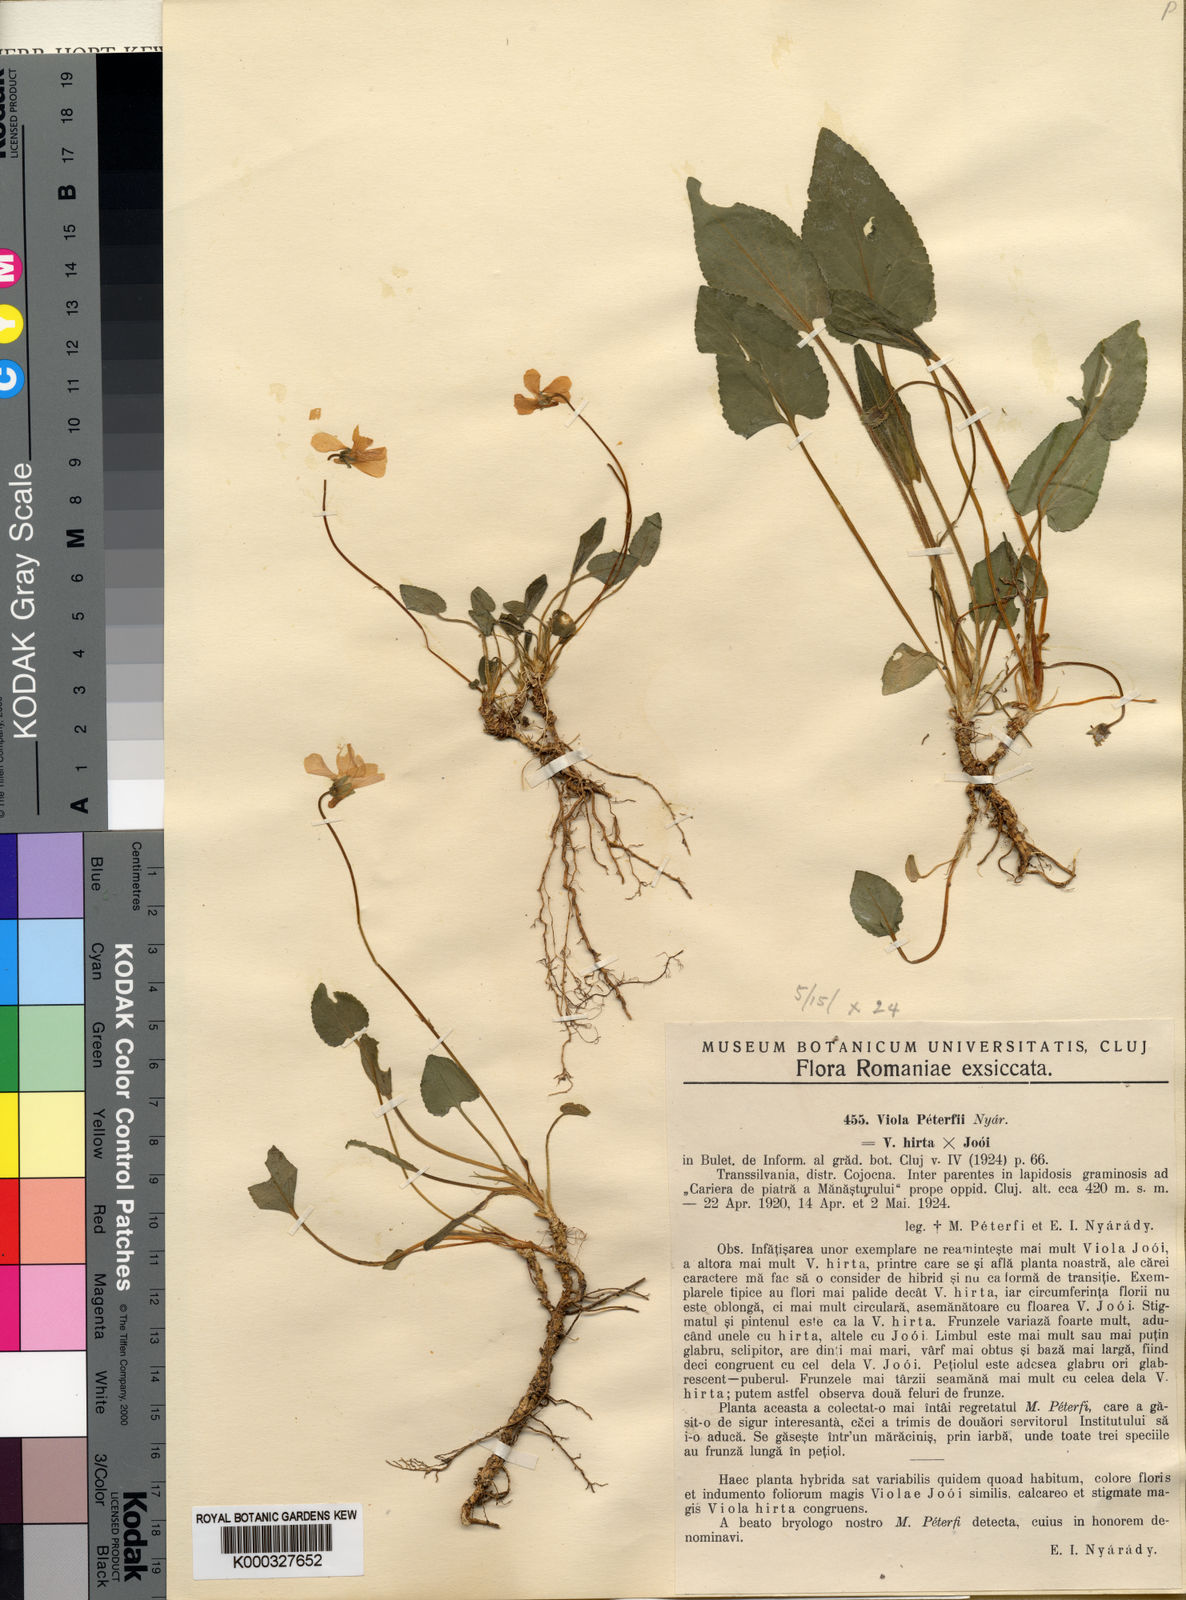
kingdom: Plantae
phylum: Tracheophyta
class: Magnoliopsida
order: Malpighiales
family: Violaceae
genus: Viola
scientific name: Viola hirta
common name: Hairy violet
